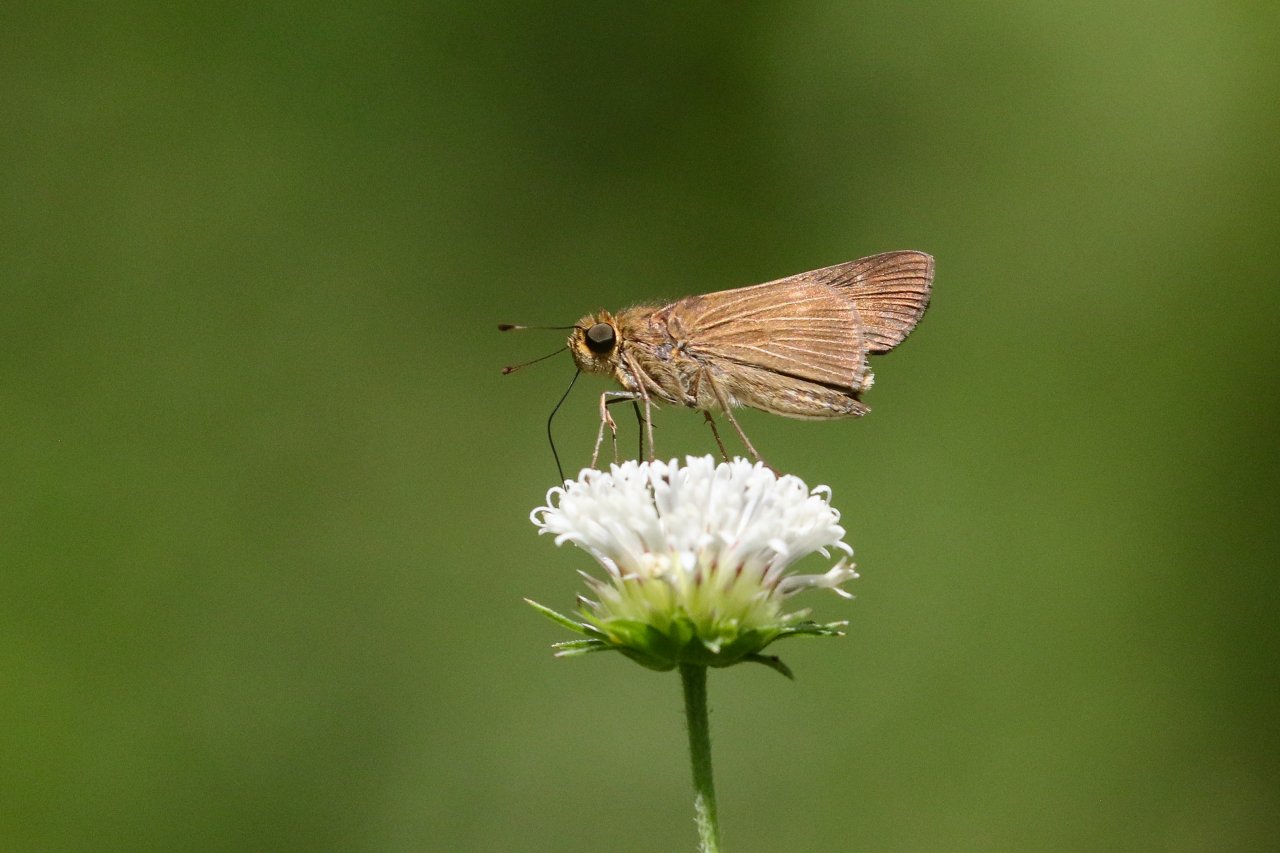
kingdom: Animalia
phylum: Arthropoda
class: Insecta
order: Lepidoptera
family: Hesperiidae
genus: Panoquina
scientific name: Panoquina ocola
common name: Ocola Skipper
